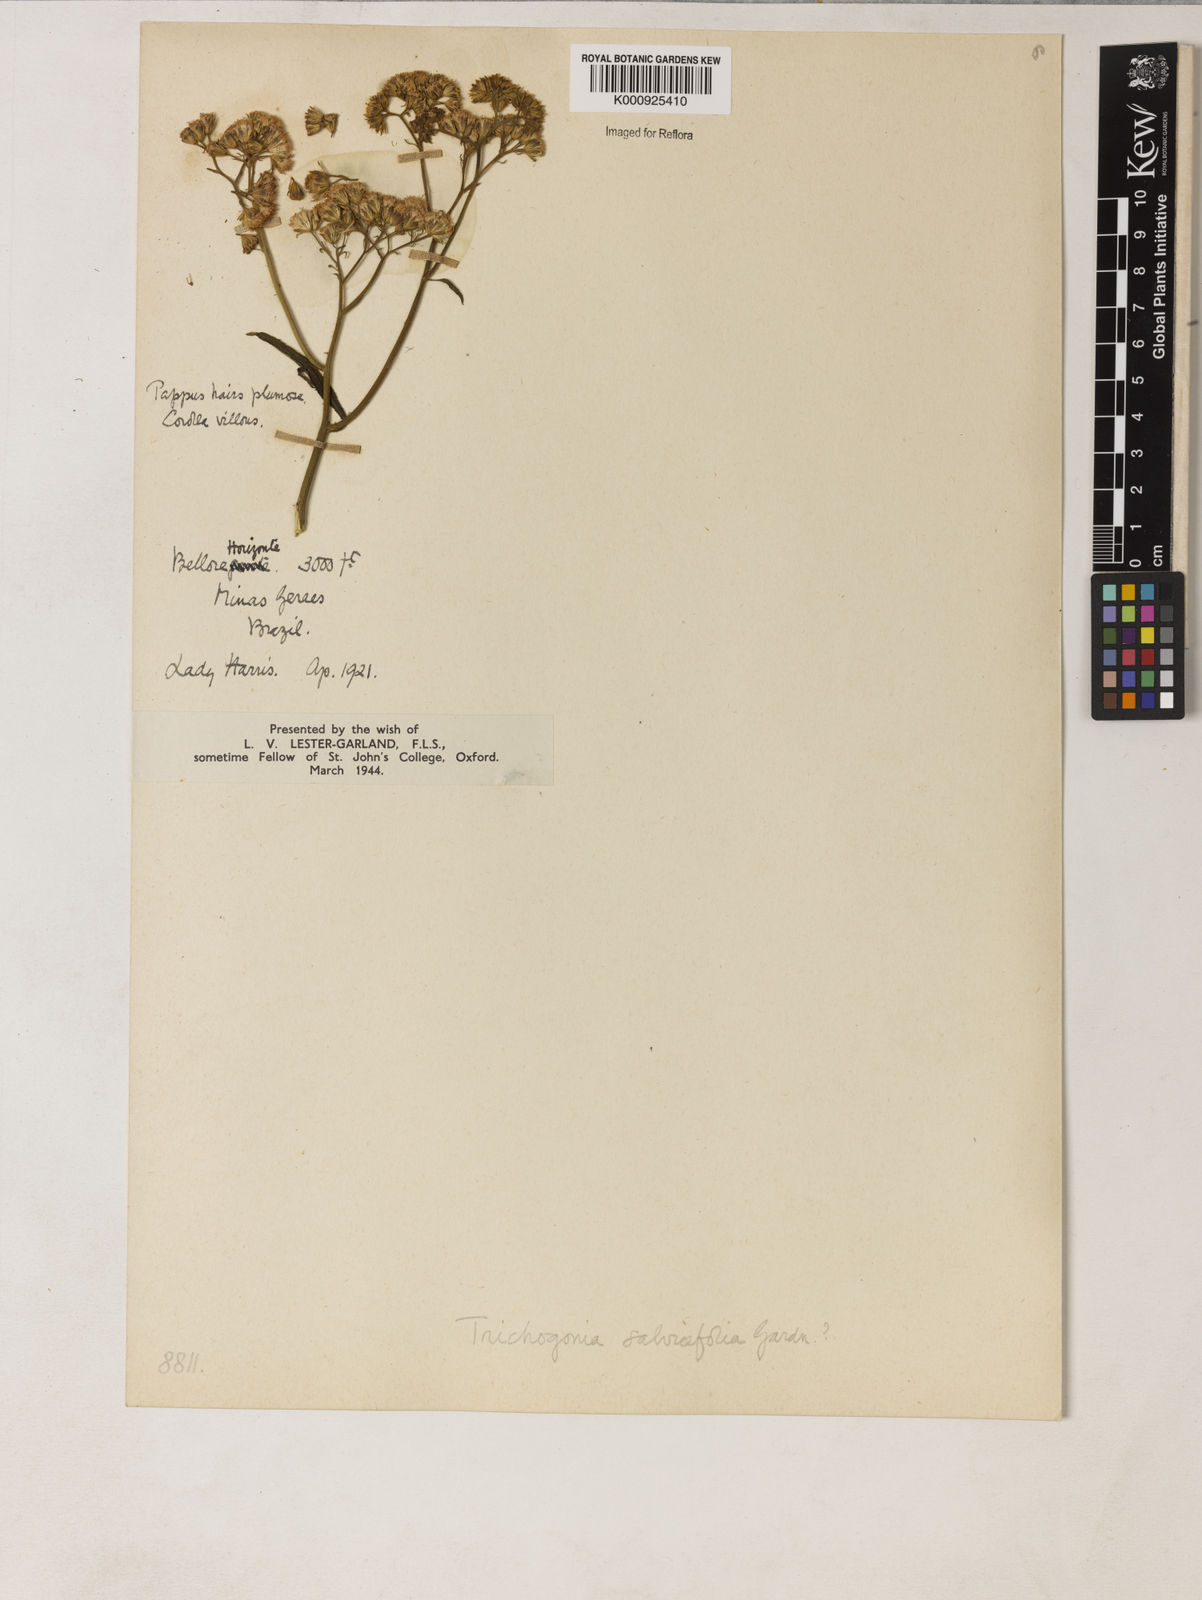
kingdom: Plantae
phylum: Tracheophyta
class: Magnoliopsida
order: Asterales
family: Asteraceae
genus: Trichogonia
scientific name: Trichogonia
